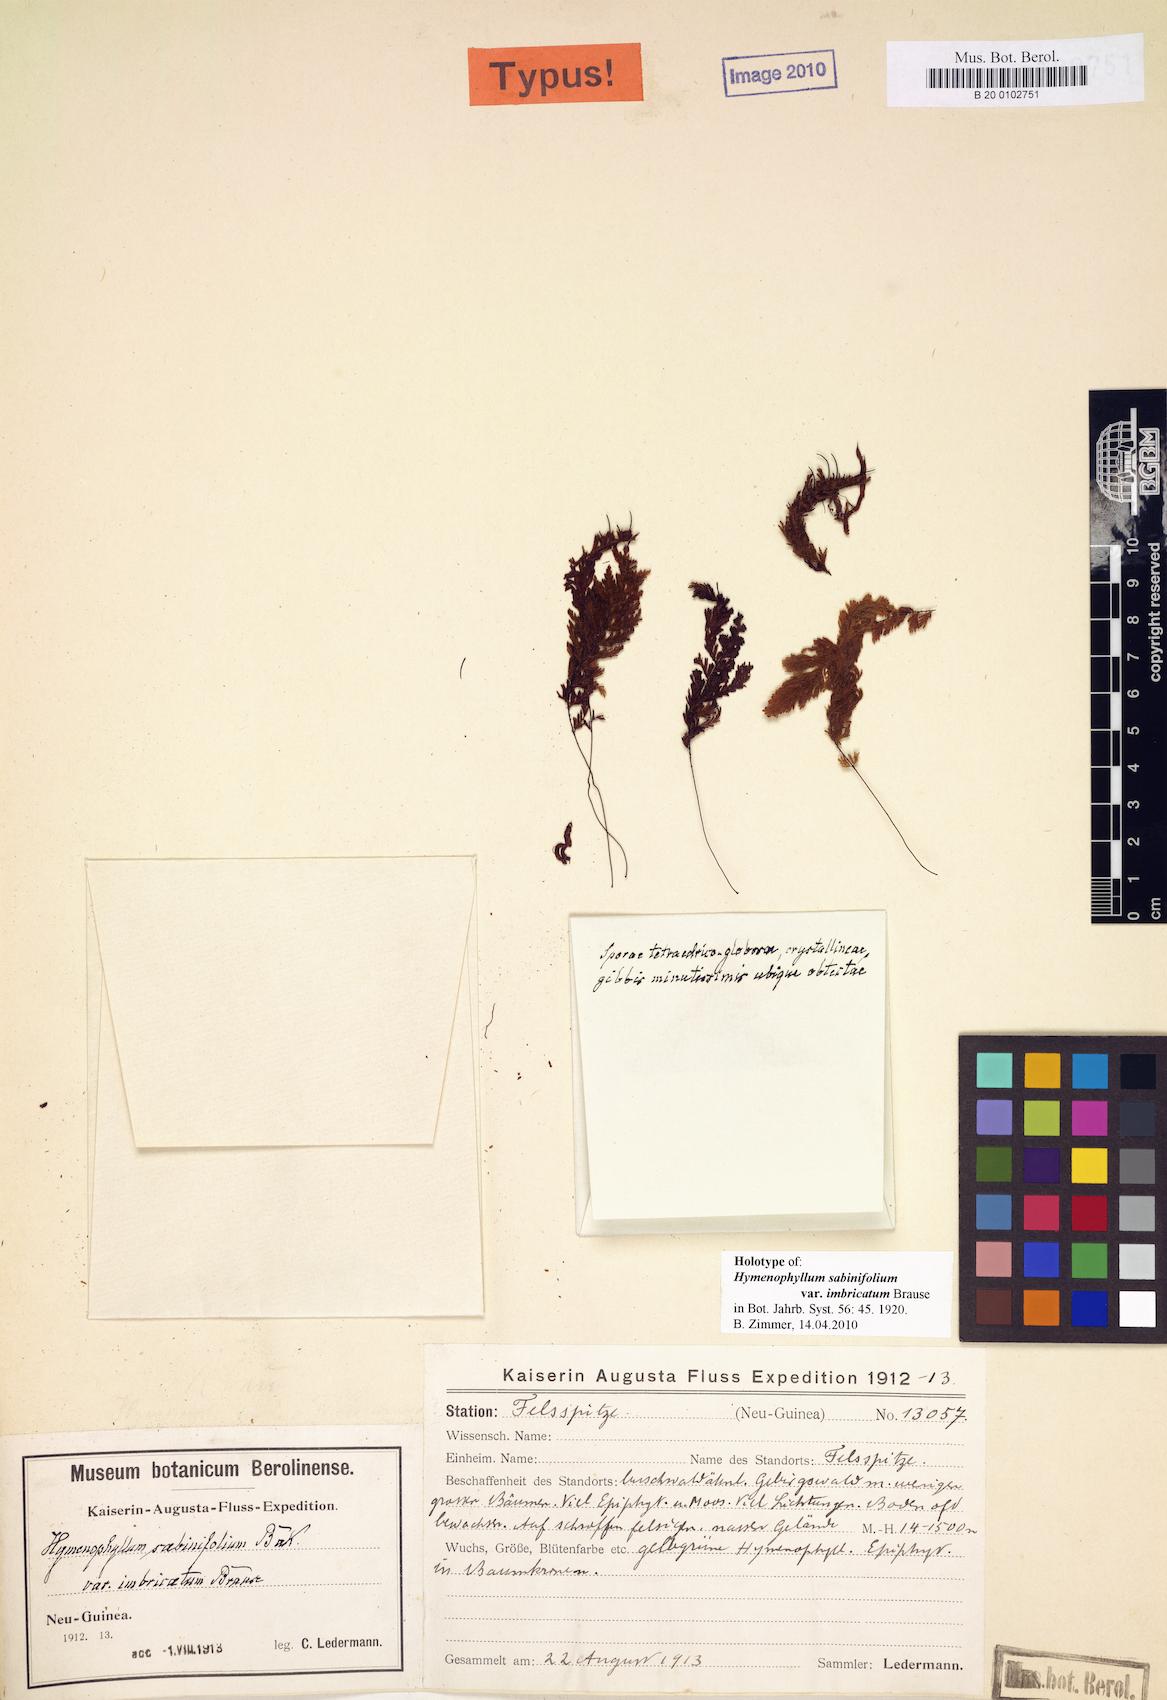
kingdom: Plantae
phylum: Tracheophyta
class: Polypodiopsida
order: Hymenophyllales
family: Hymenophyllaceae
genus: Hymenophyllum
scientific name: Hymenophyllum sabinifolium
